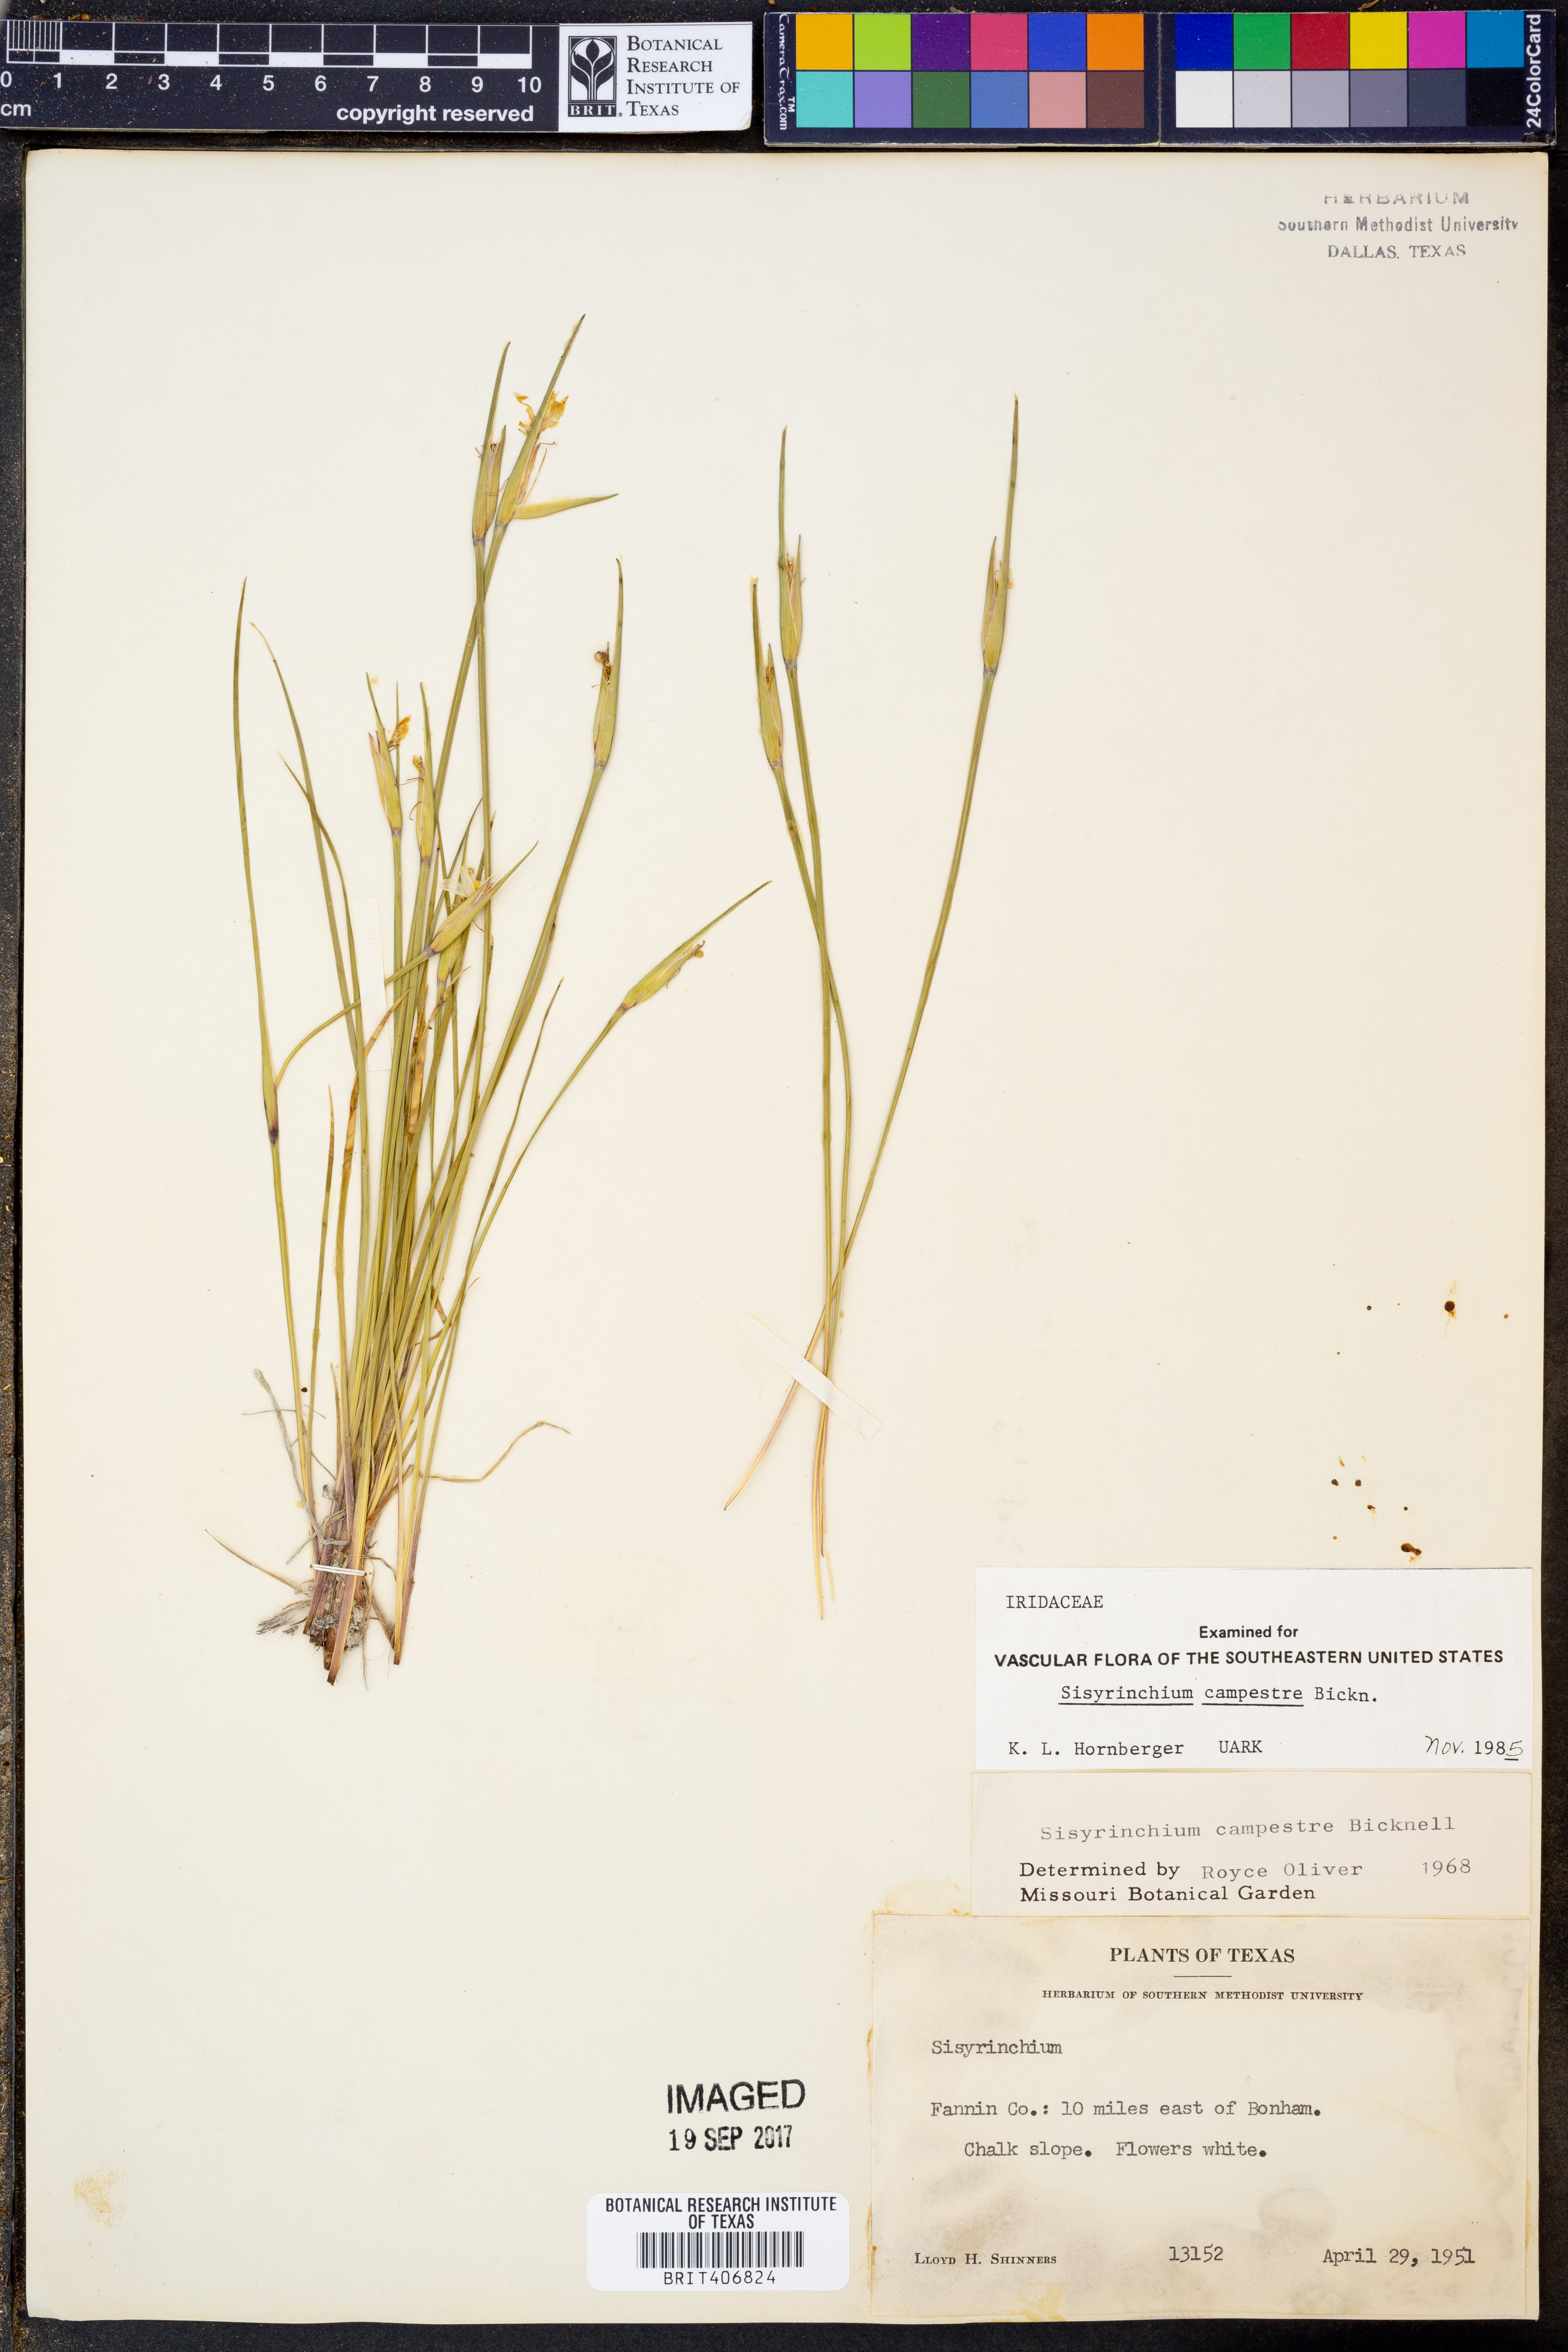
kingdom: Plantae
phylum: Tracheophyta
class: Liliopsida
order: Asparagales
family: Iridaceae
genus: Sisyrinchium
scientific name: Sisyrinchium campestre
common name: Prairie blue-eyed-grass
